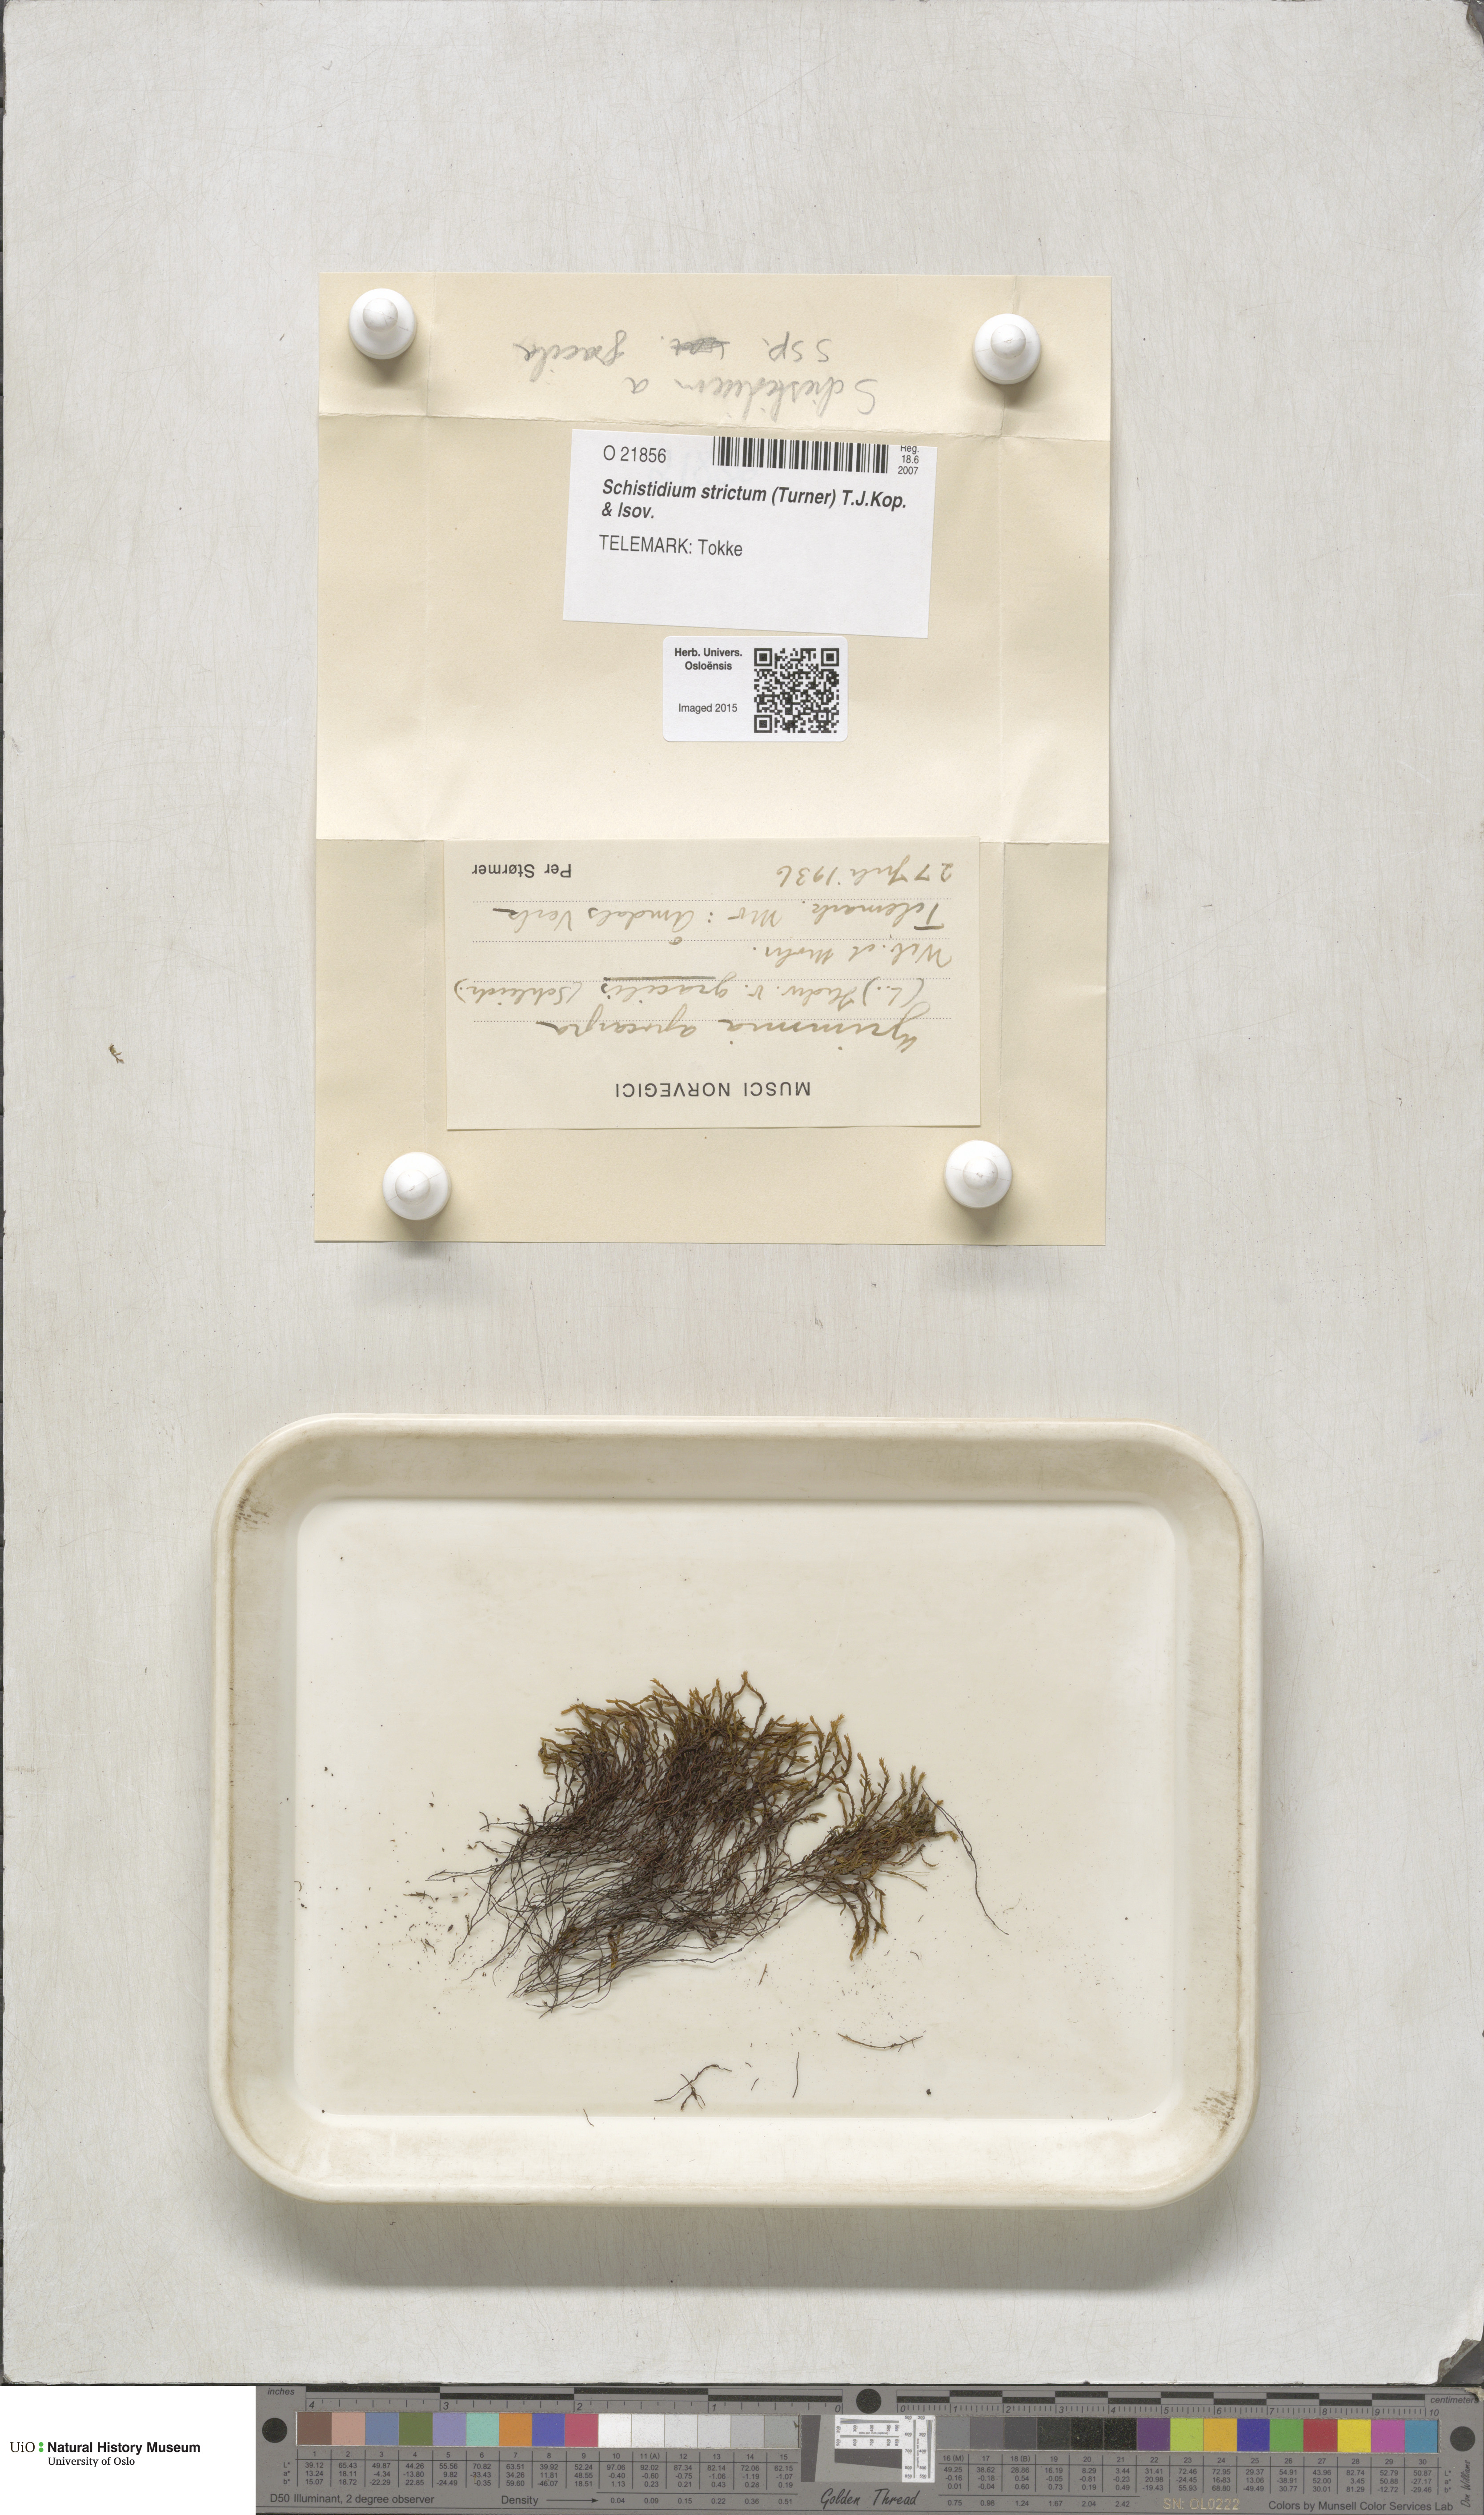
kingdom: Plantae
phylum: Bryophyta
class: Bryopsida
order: Grimmiales
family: Grimmiaceae
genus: Schistidium
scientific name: Schistidium strictum
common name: Upright brown grimmia
